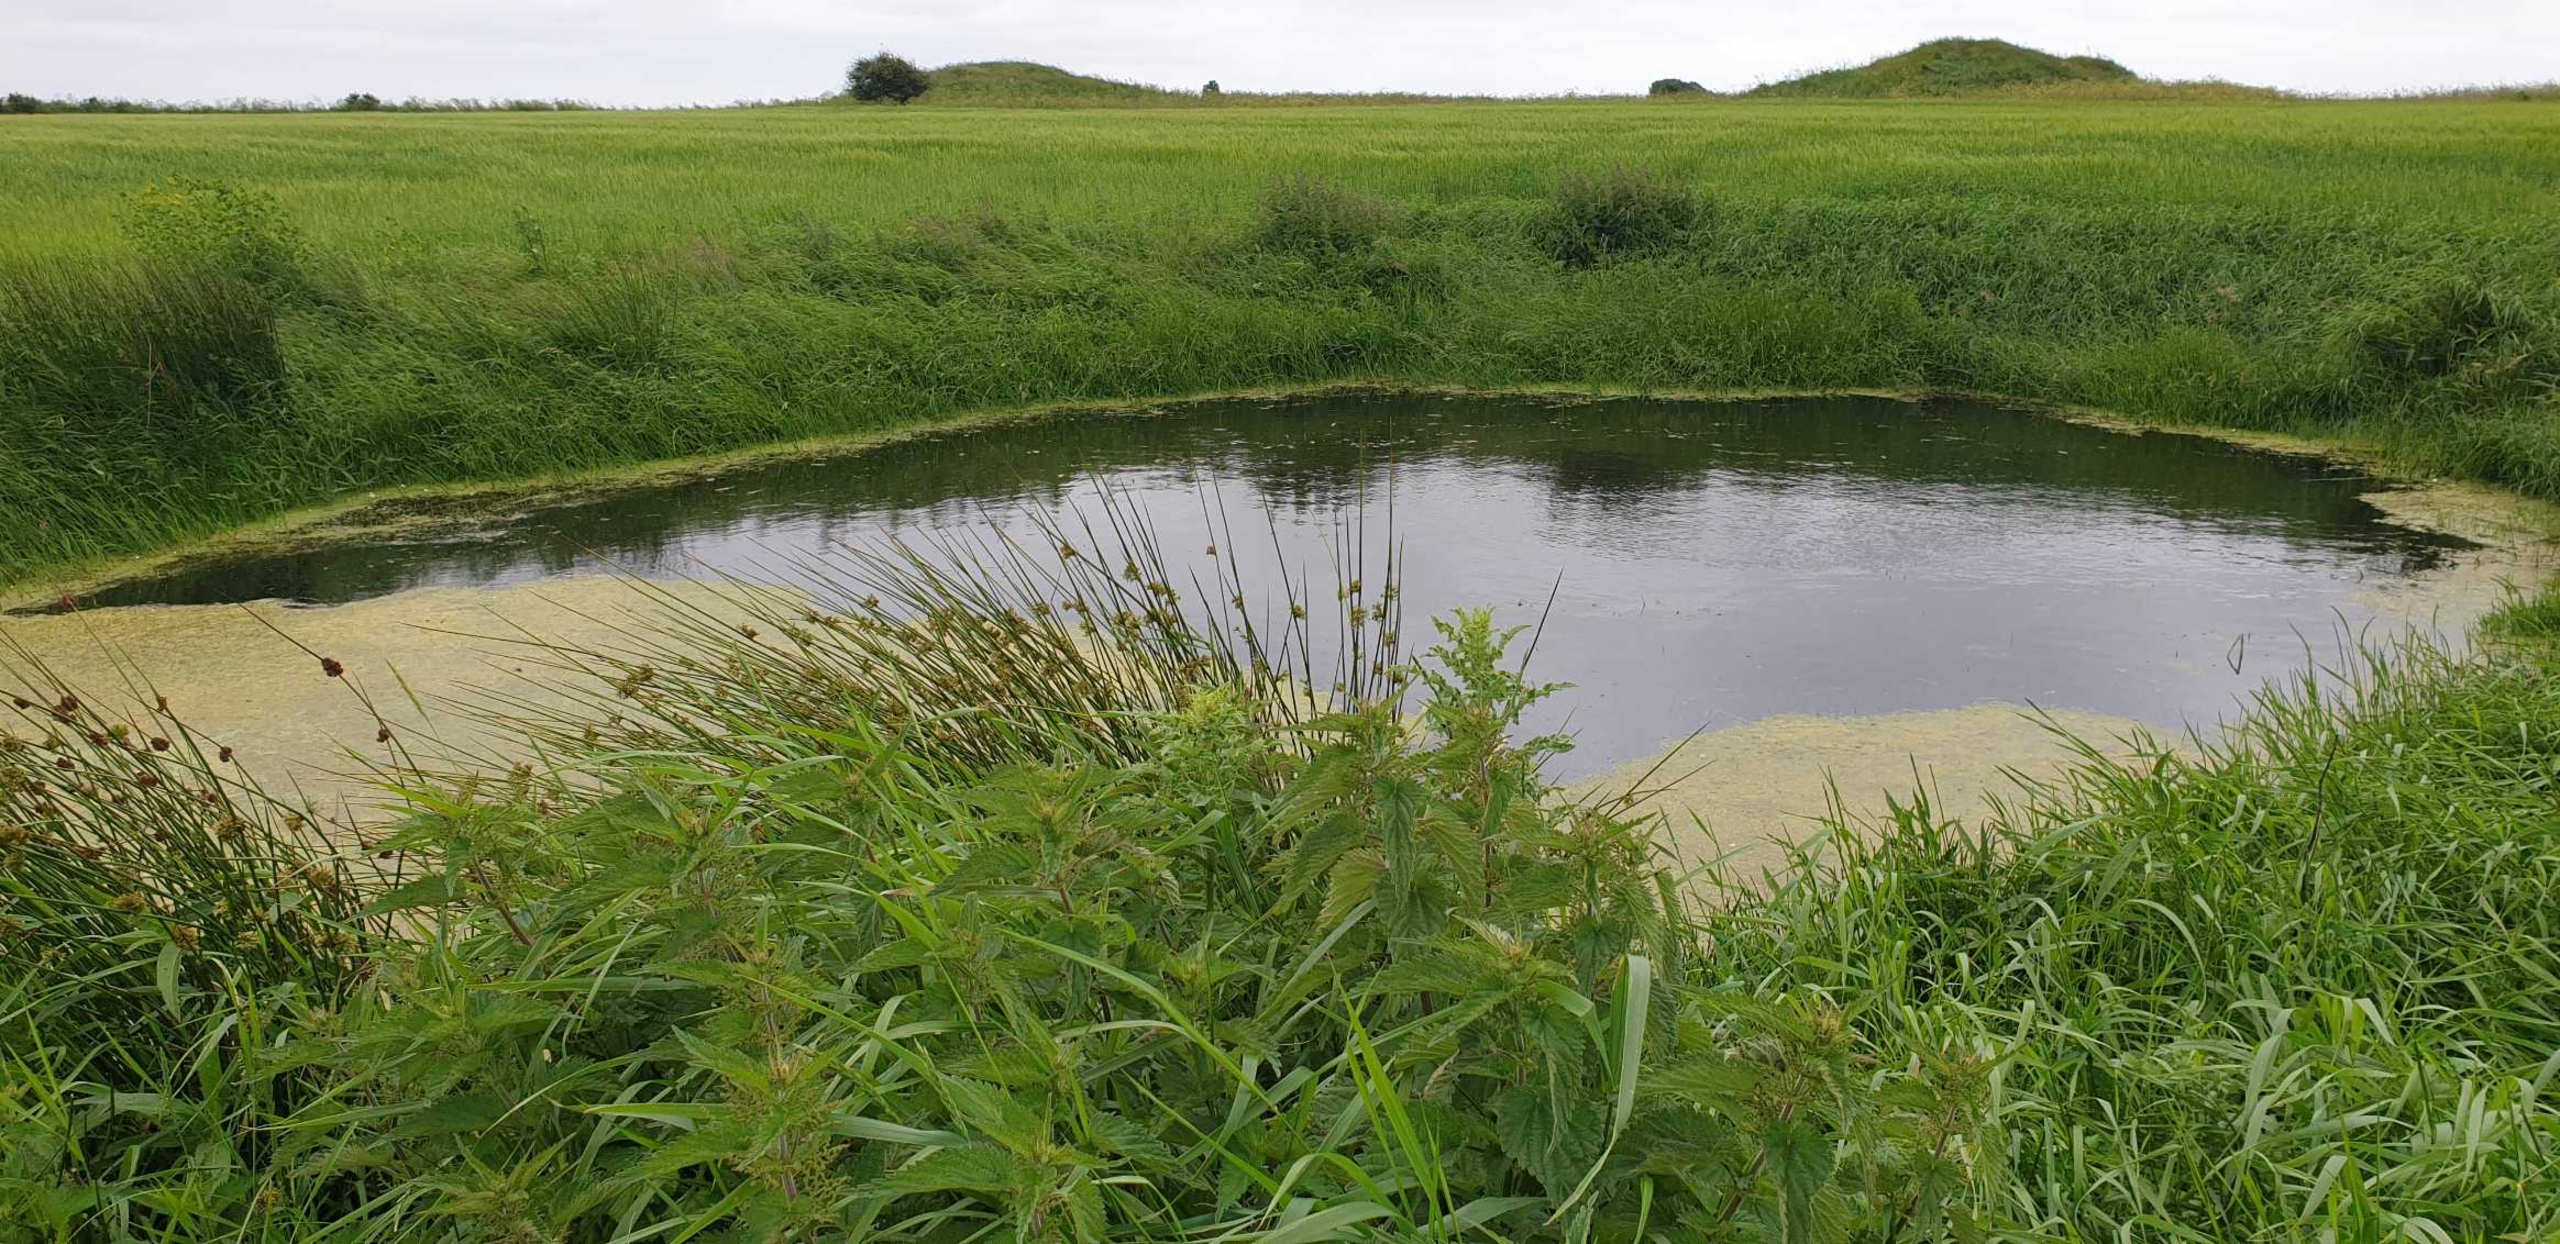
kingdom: Plantae
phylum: Tracheophyta
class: Magnoliopsida
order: Rosales
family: Urticaceae
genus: Urtica
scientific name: Urtica dioica
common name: Stor nælde
